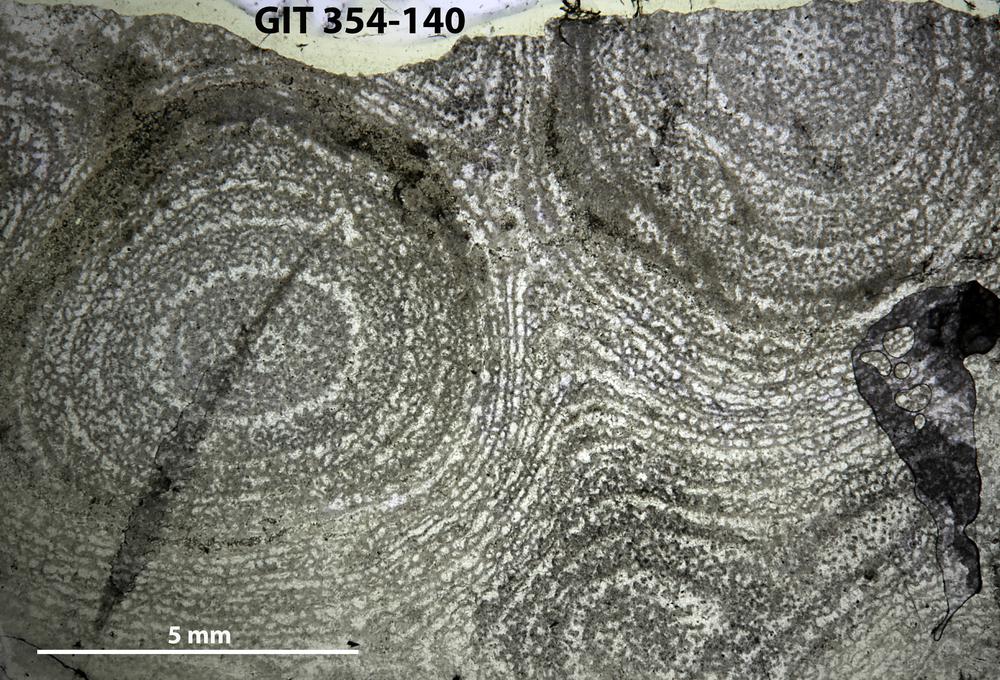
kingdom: Animalia
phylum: Porifera
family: Clathrodictyidae
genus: Clathrodictyon
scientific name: Clathrodictyon boreale
